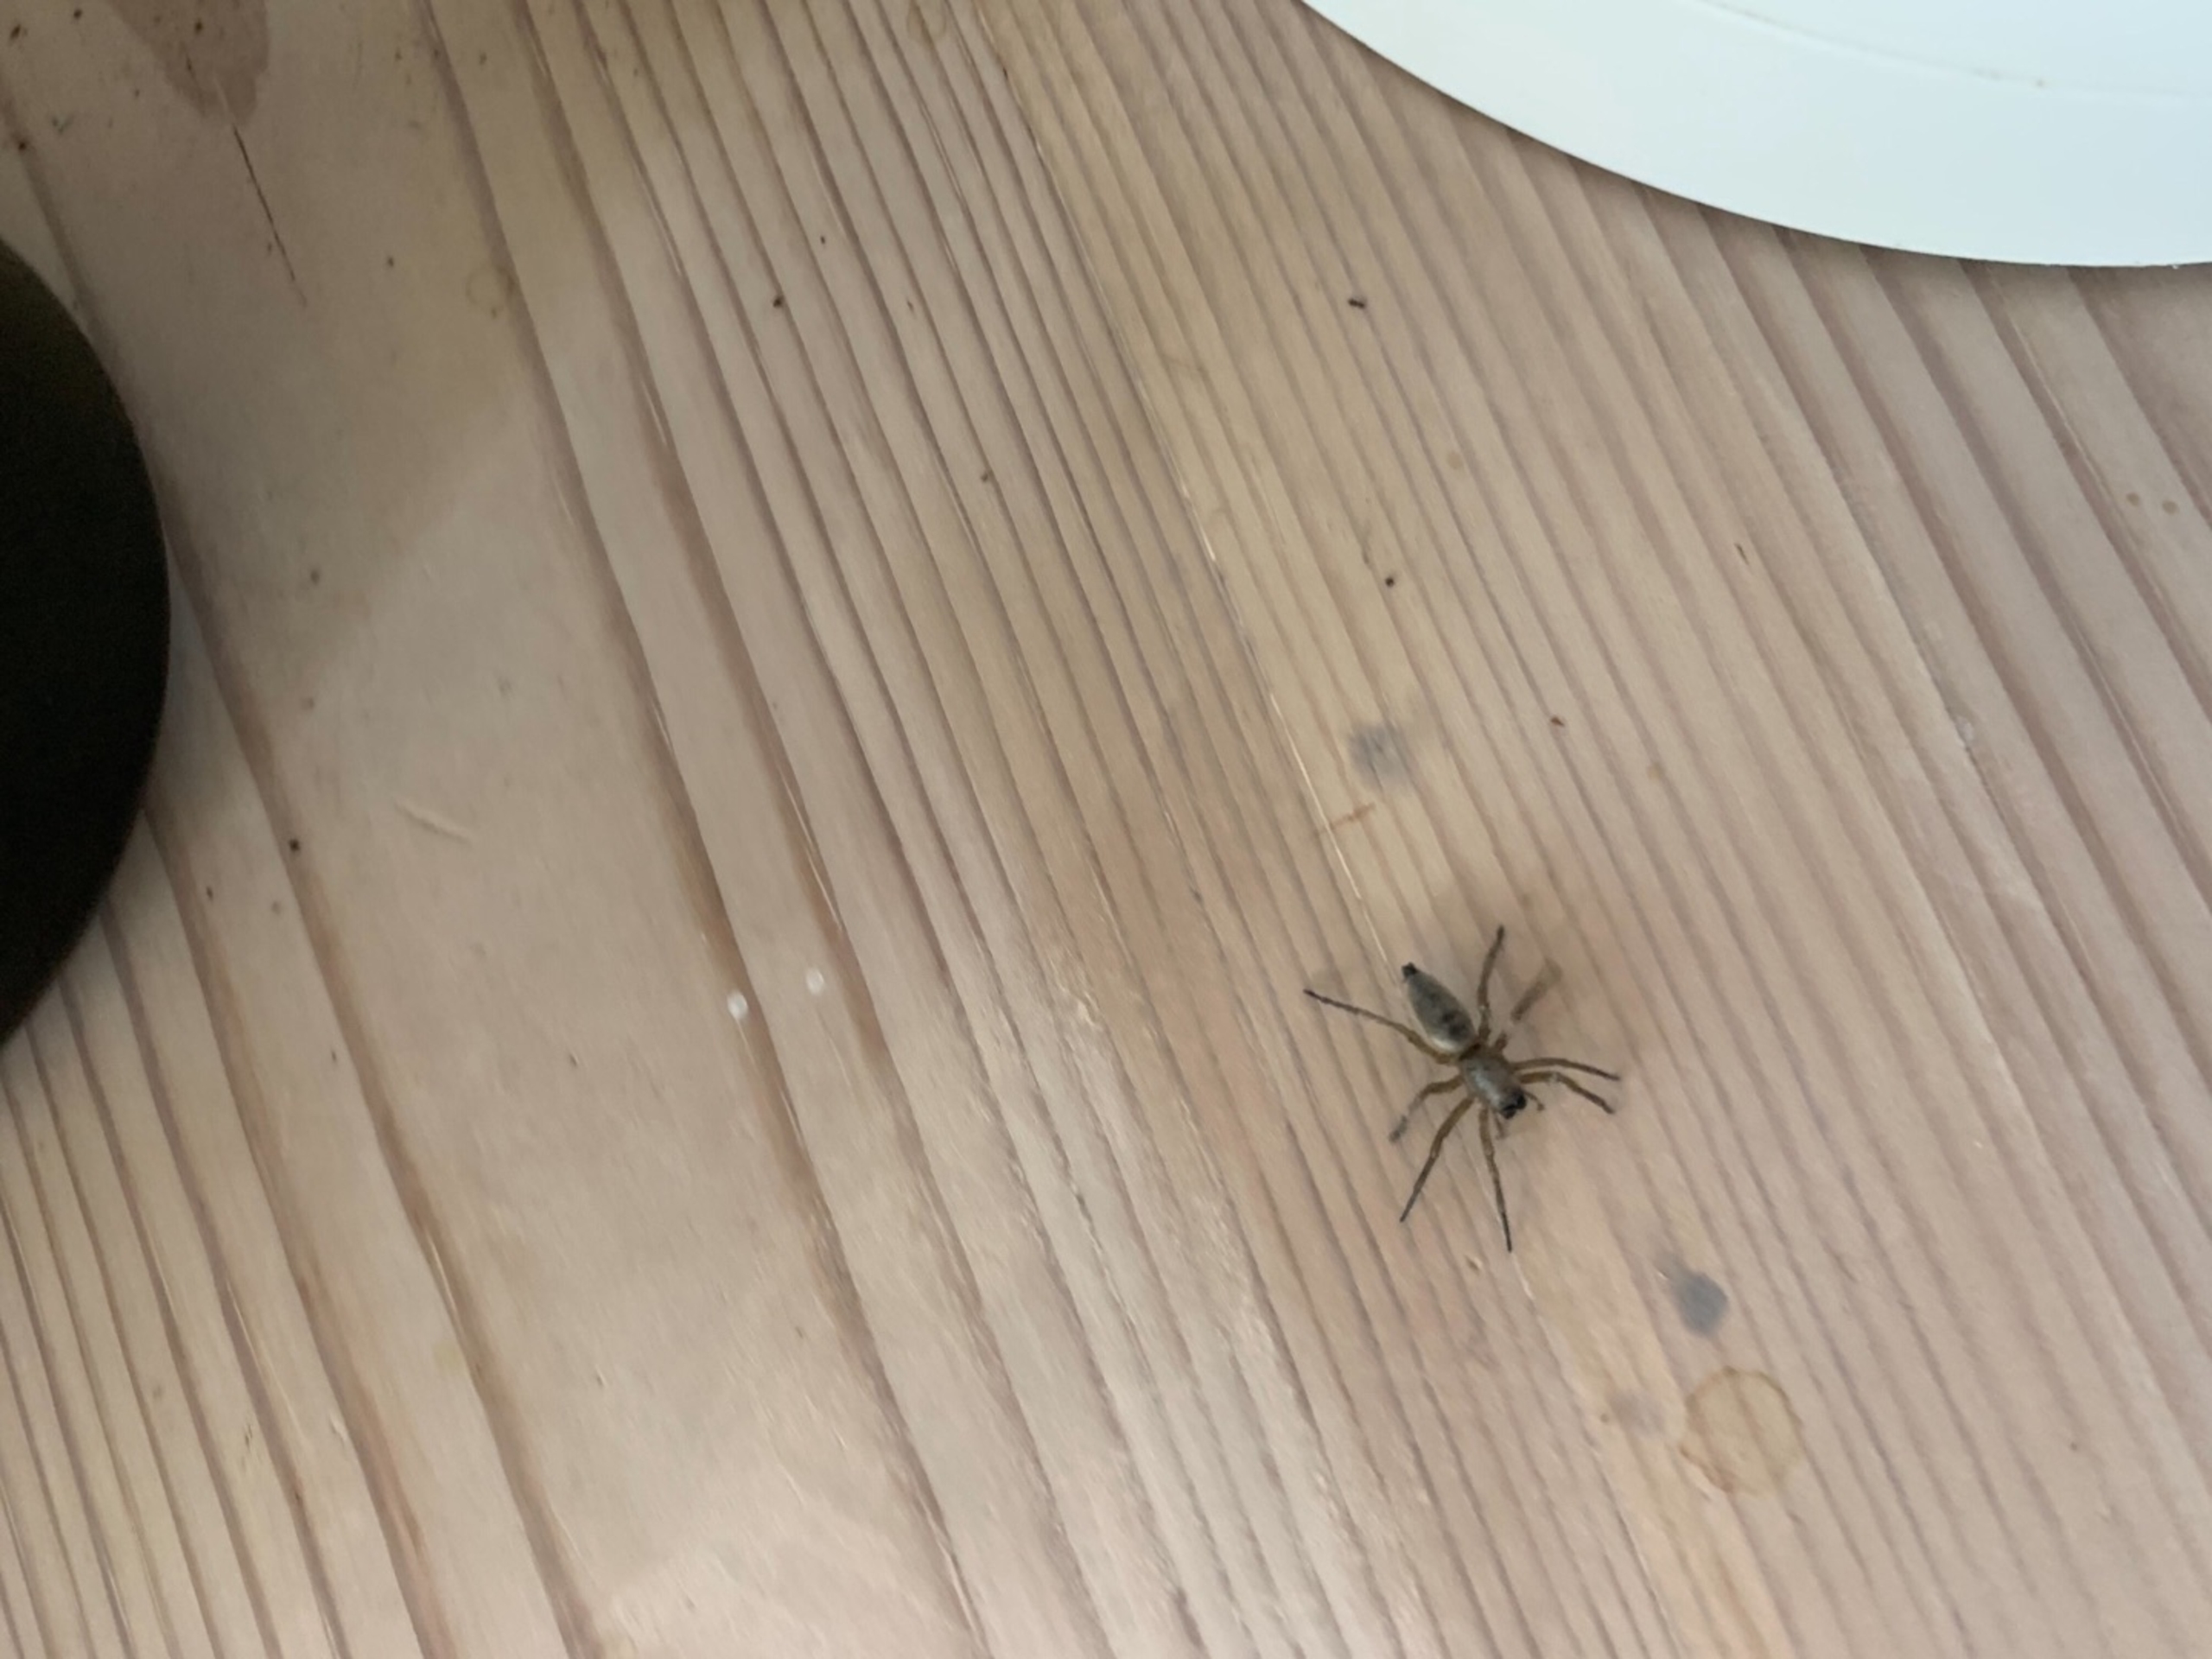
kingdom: Animalia
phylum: Arthropoda
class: Arachnida
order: Araneae
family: Clubionidae
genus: Clubiona
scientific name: Clubiona
